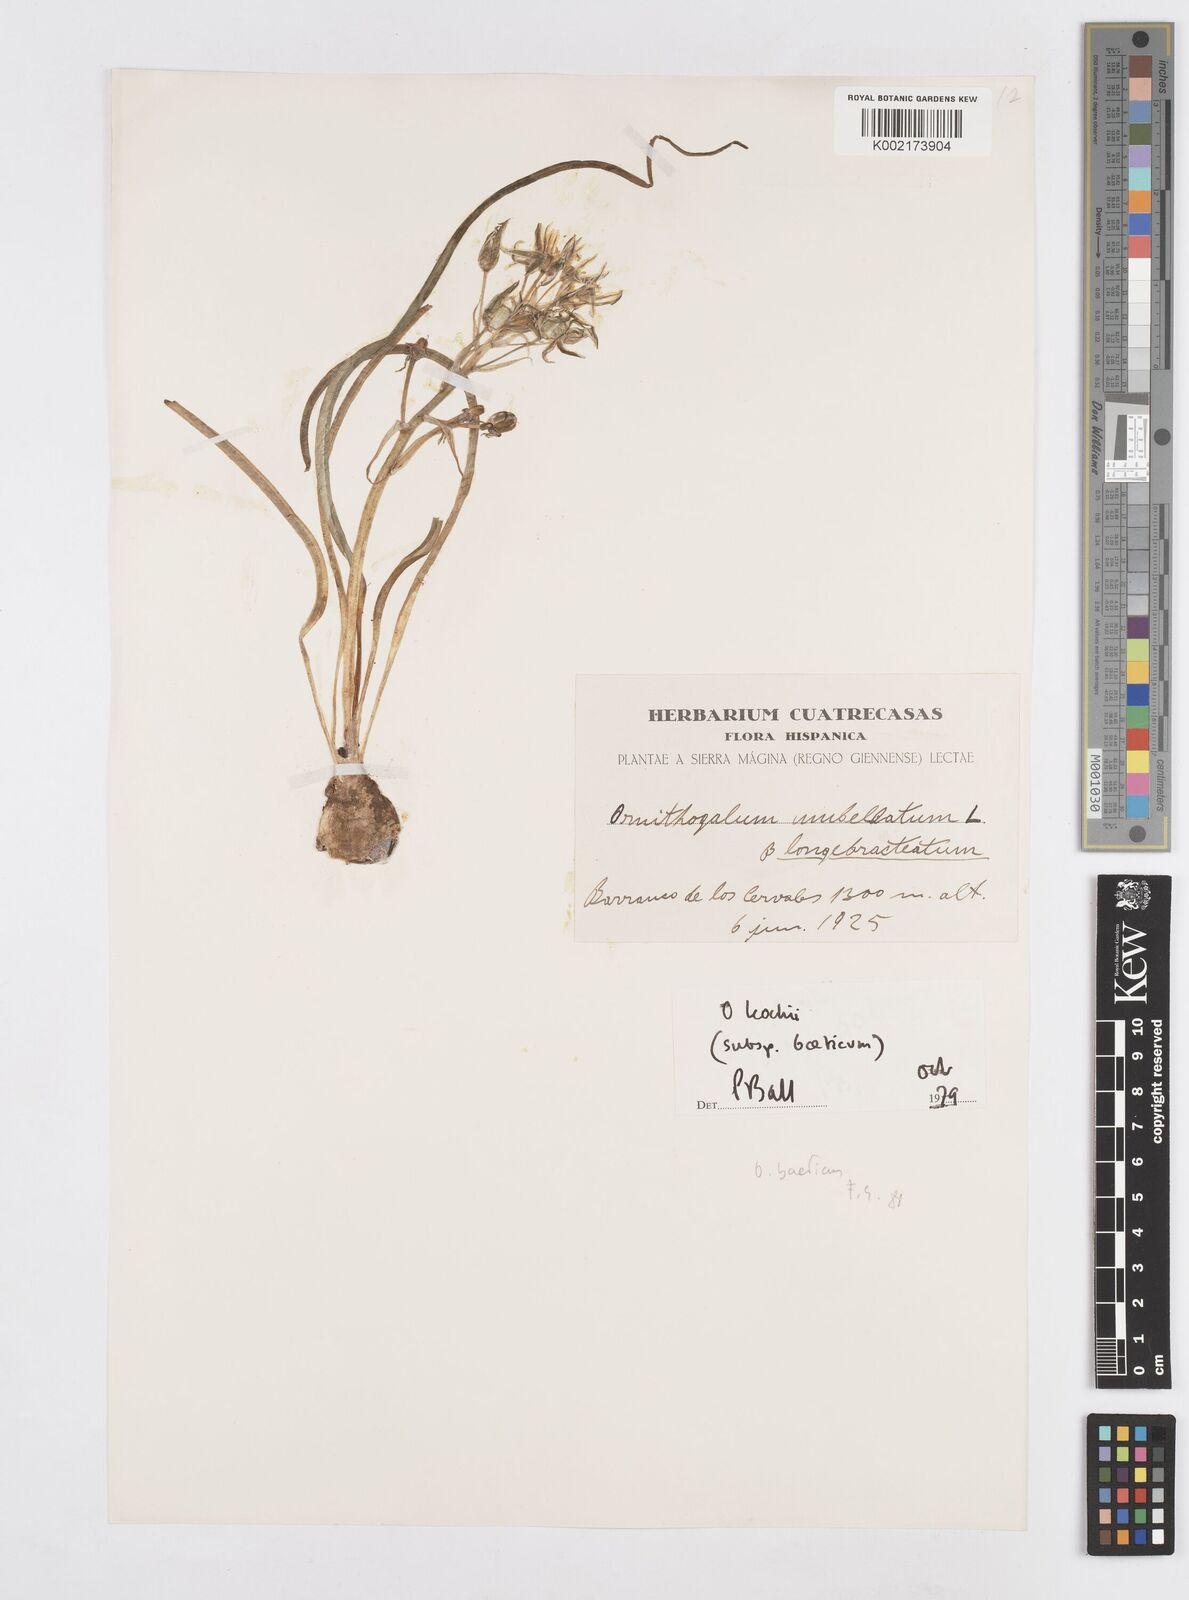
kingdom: Plantae
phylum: Tracheophyta
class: Liliopsida
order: Asparagales
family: Asparagaceae
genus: Ornithogalum
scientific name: Ornithogalum orthophyllum
